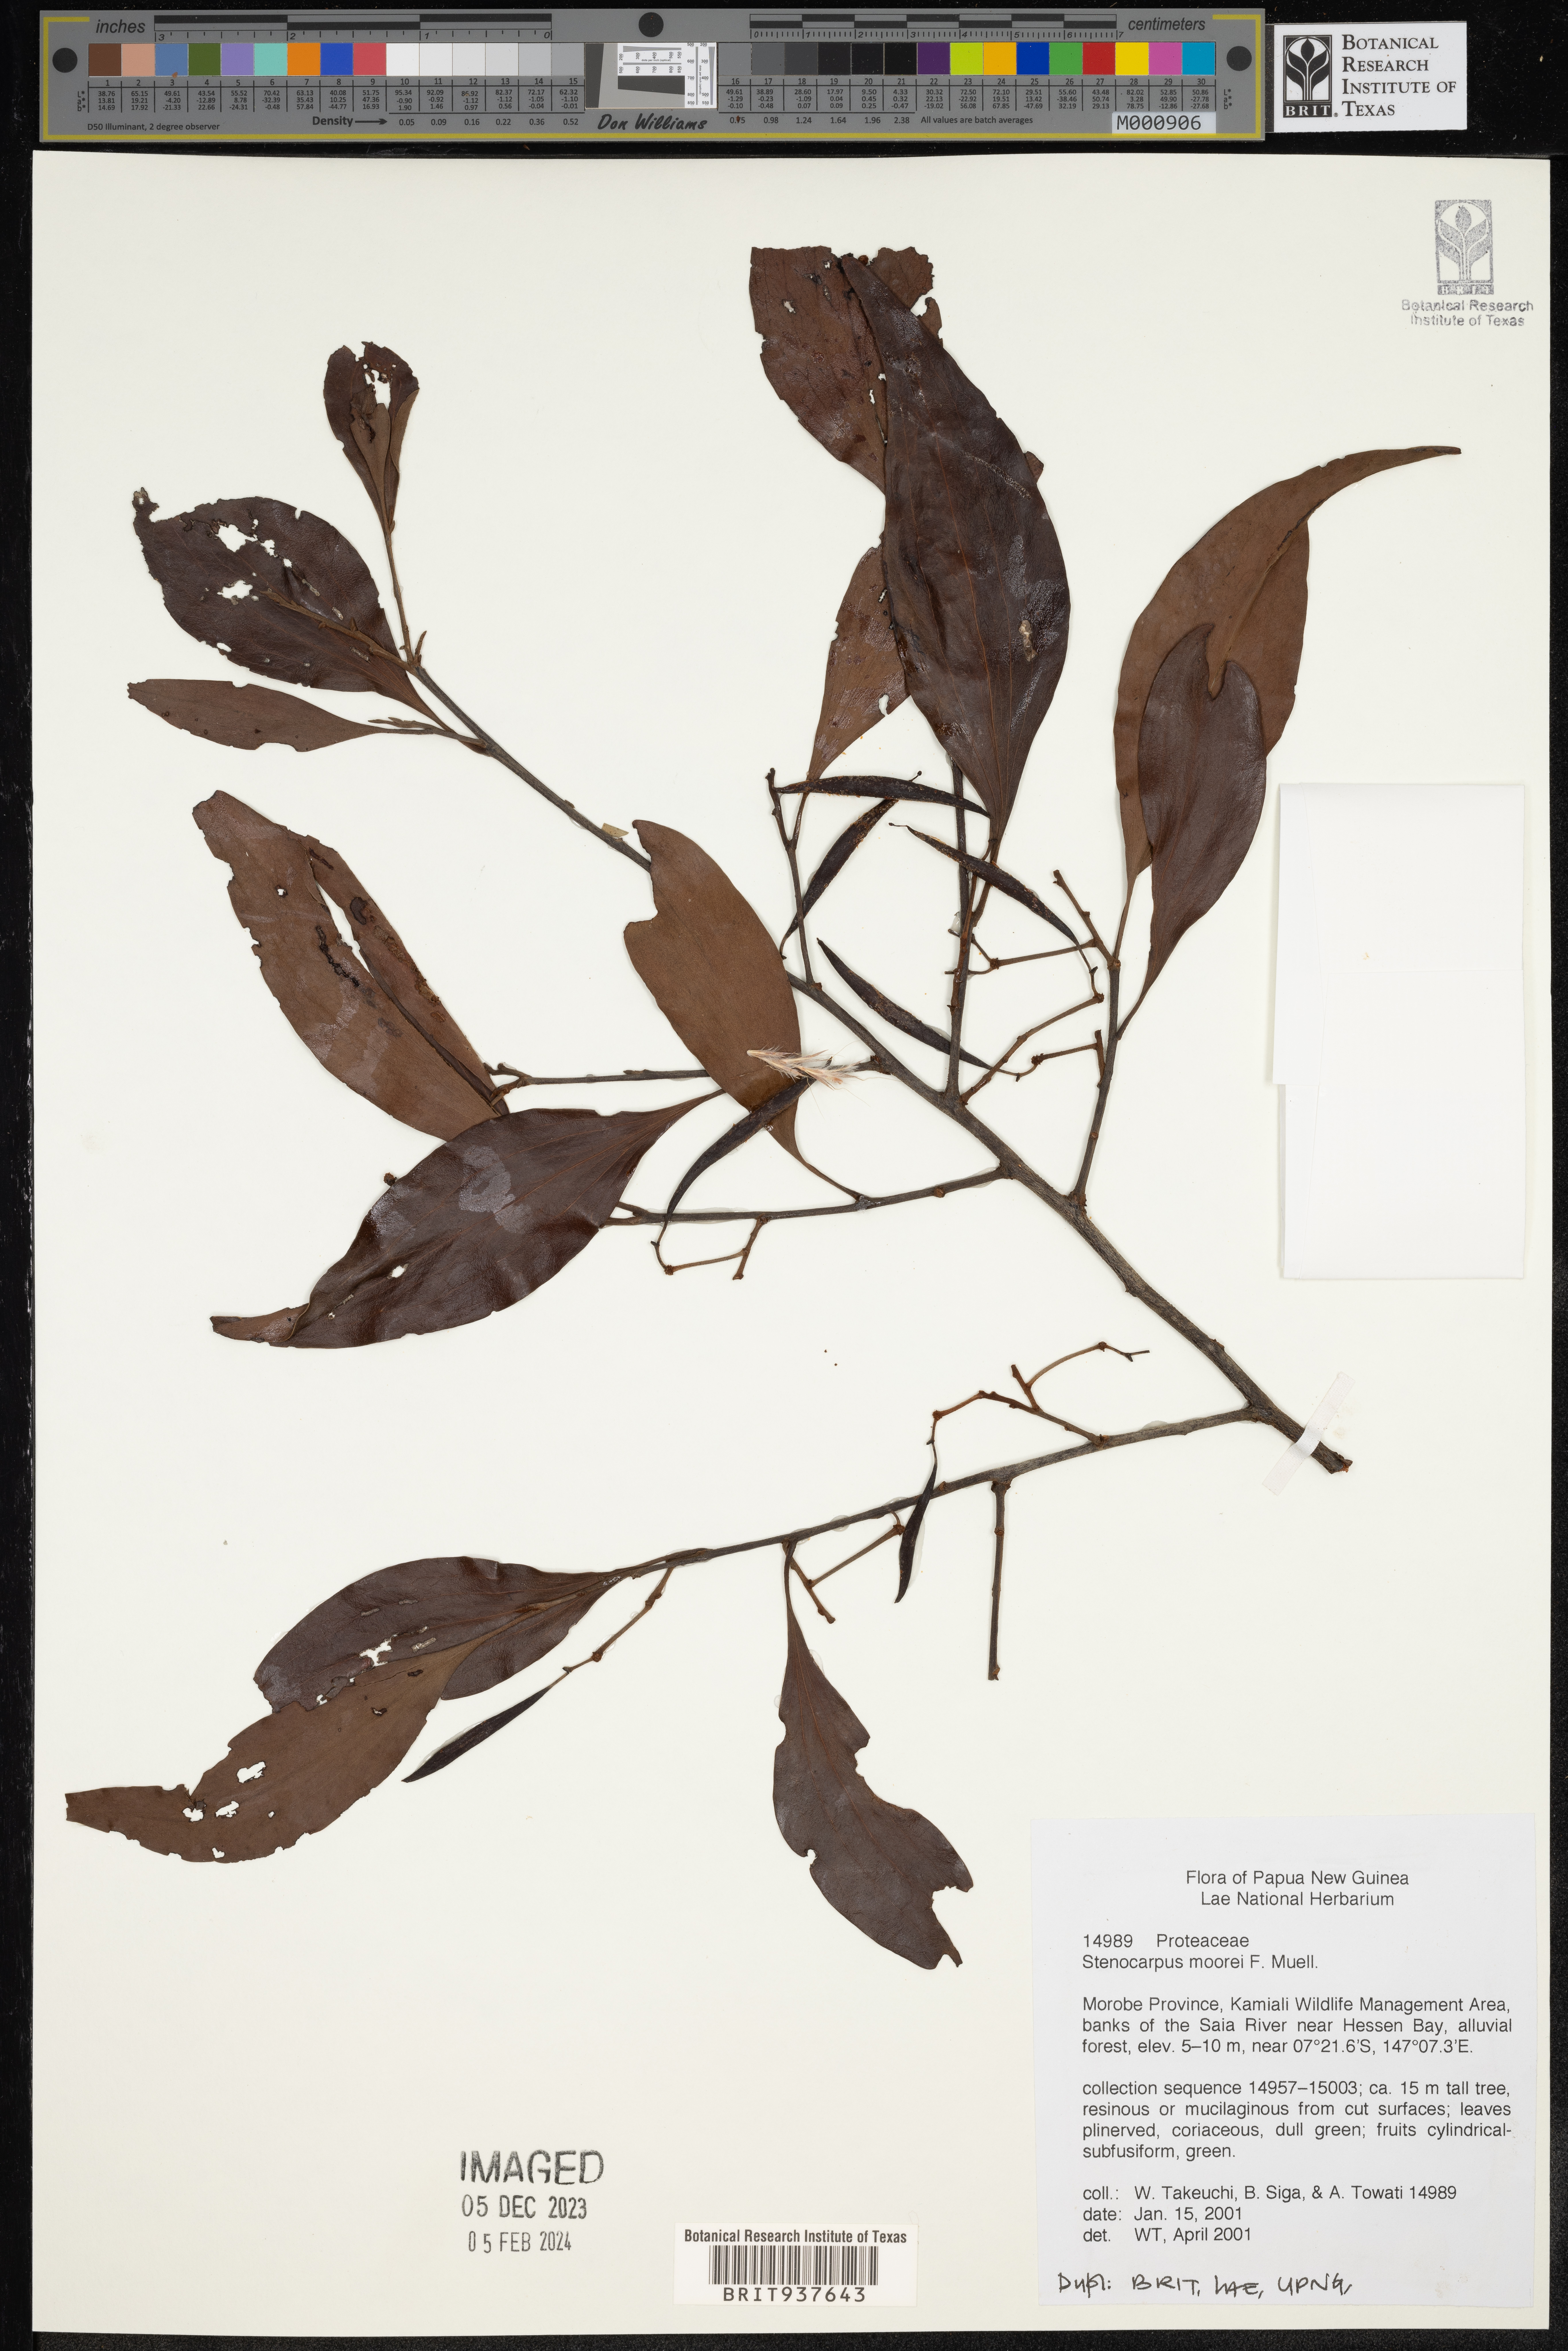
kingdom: Plantae
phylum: Tracheophyta
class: Magnoliopsida
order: Proteales
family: Proteaceae
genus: Stenocarpus
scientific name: Stenocarpus
